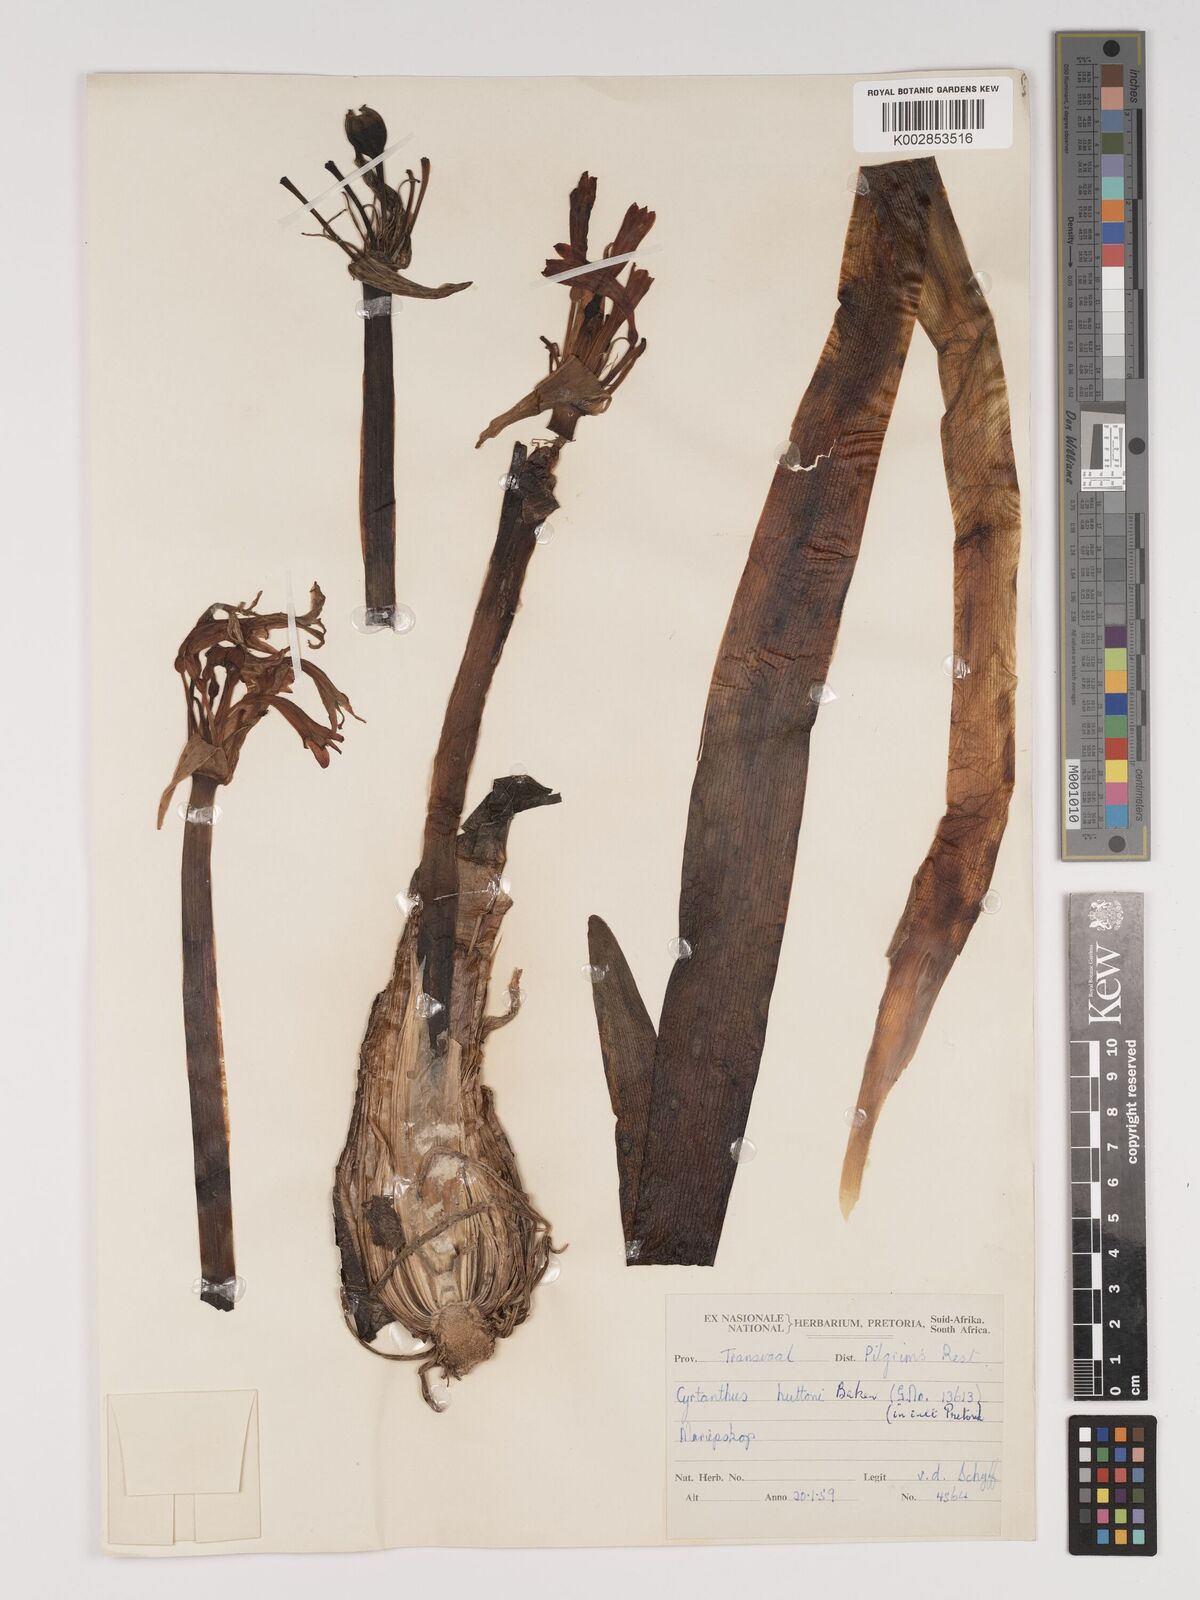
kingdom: Plantae
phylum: Tracheophyta
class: Liliopsida
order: Asparagales
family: Amaryllidaceae
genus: Cyrtanthus
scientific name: Cyrtanthus huttonii
